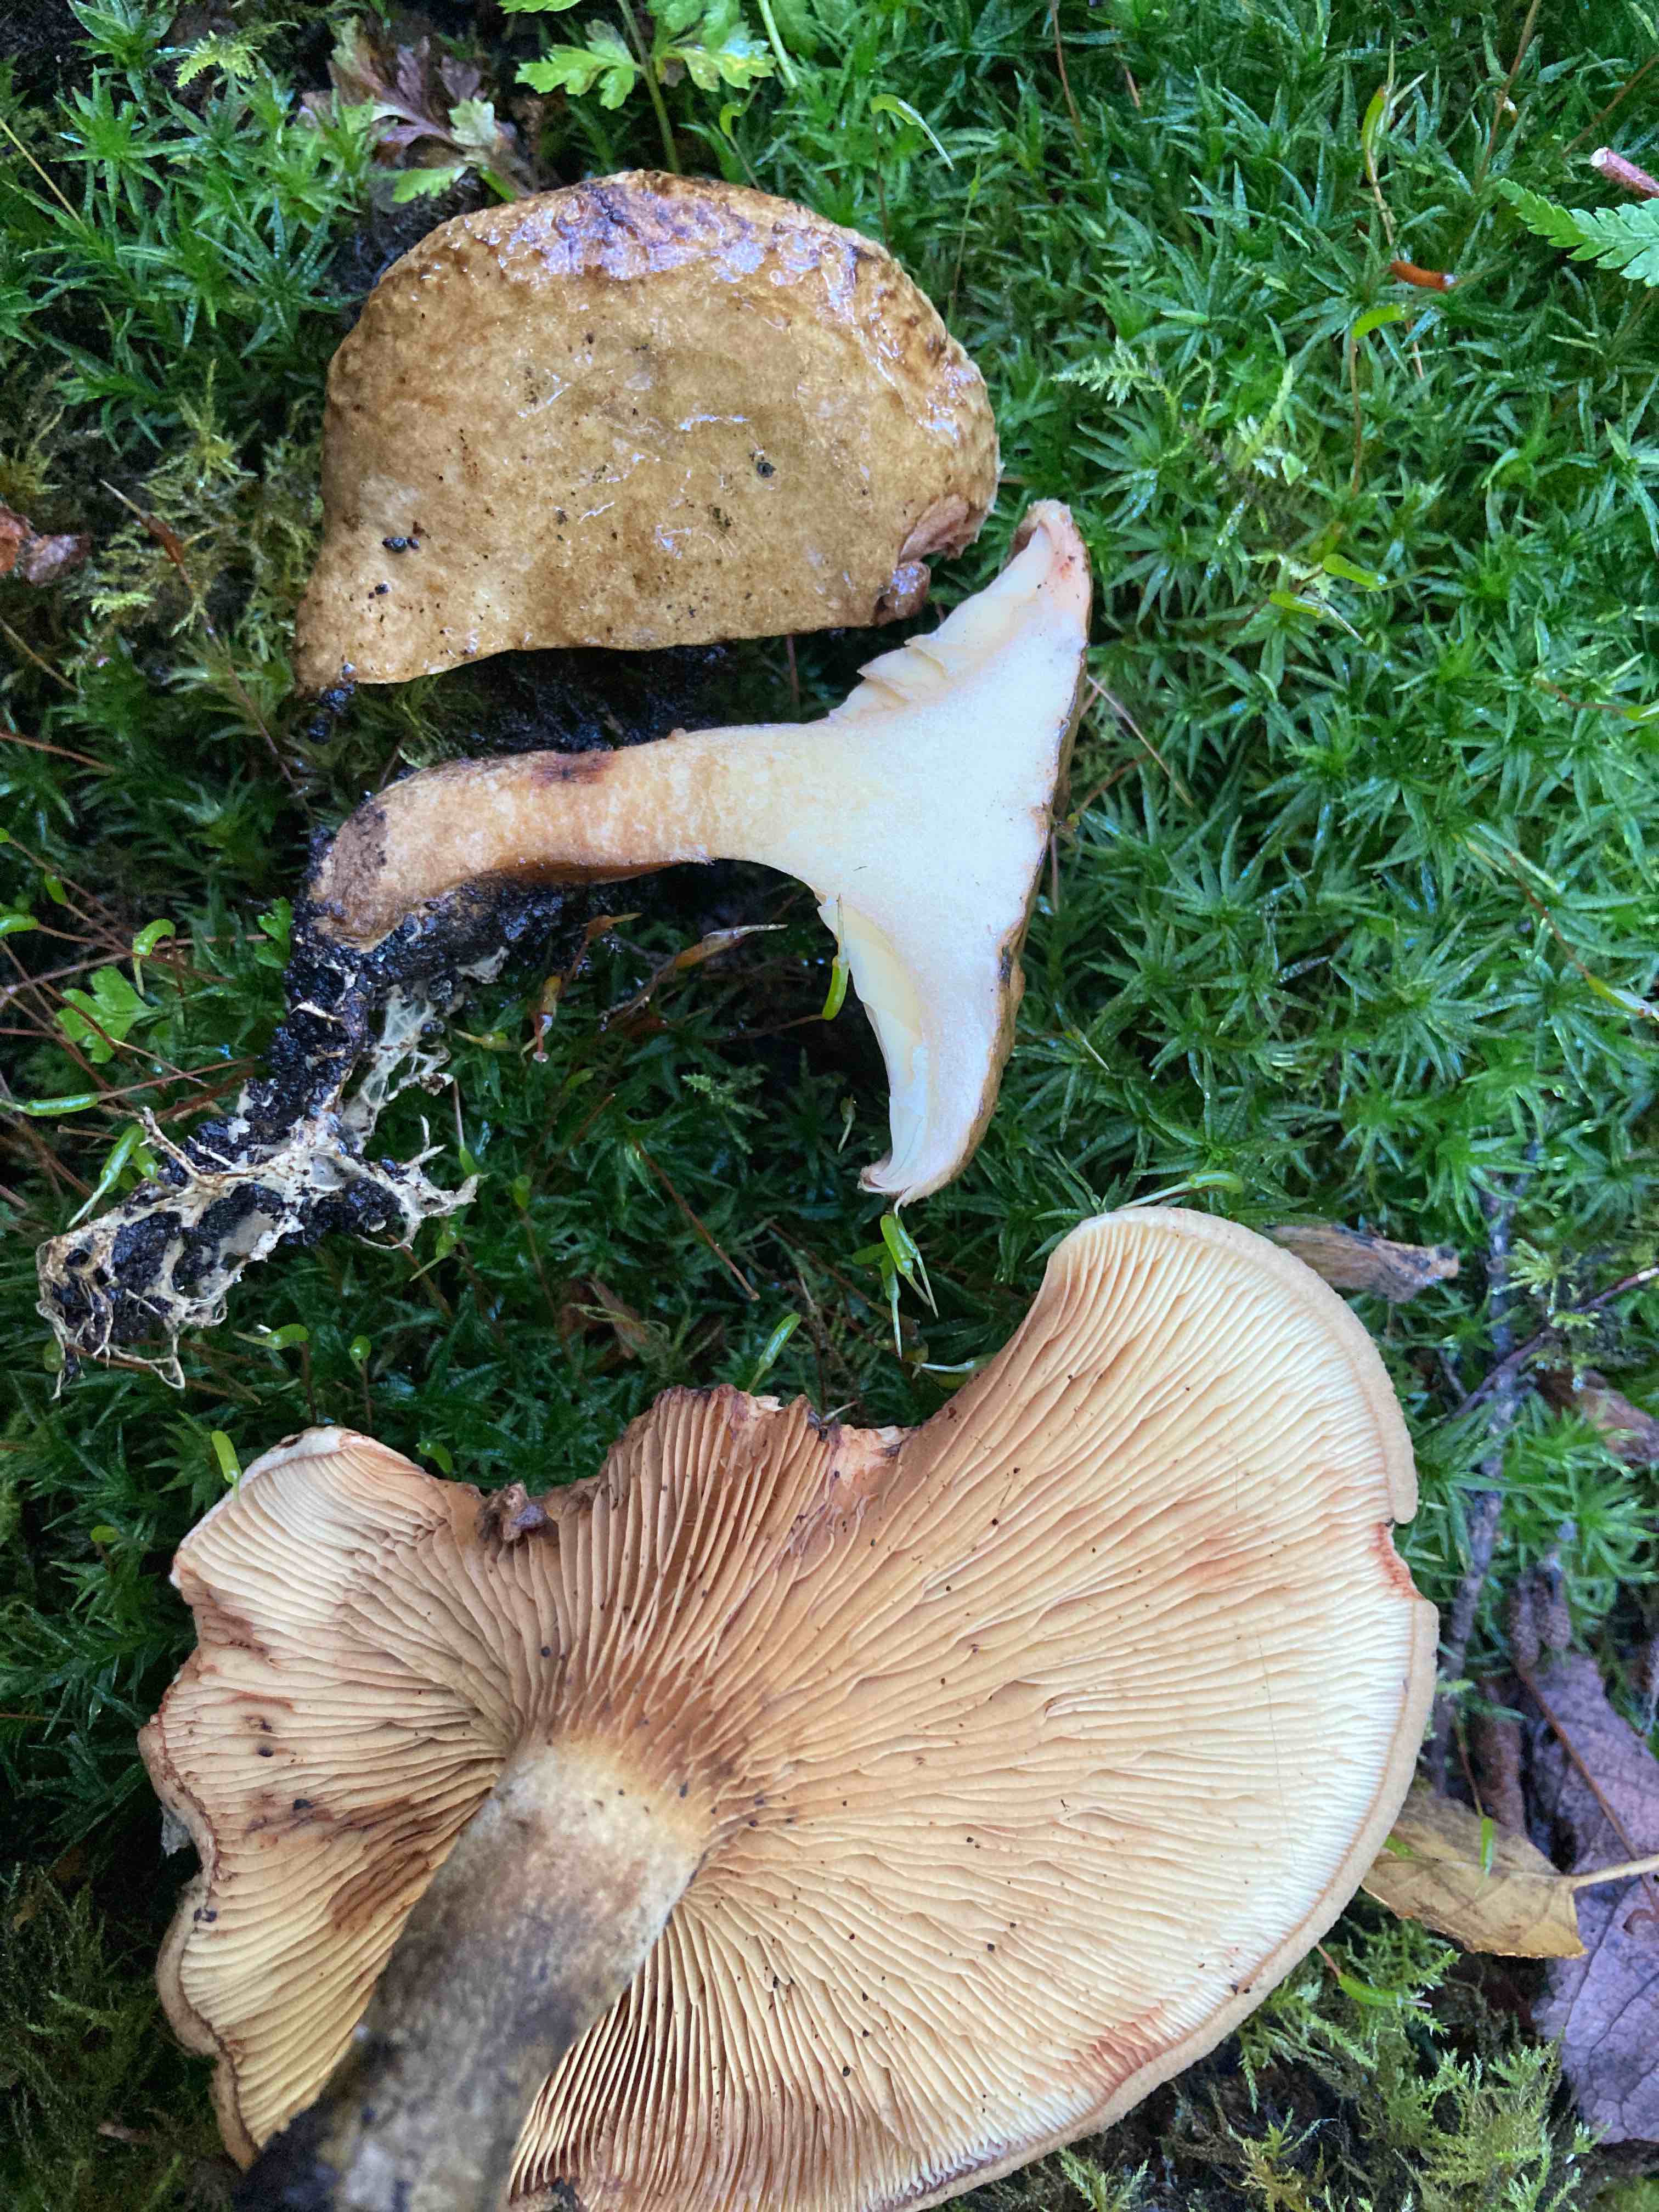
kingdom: Fungi
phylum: Basidiomycota
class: Agaricomycetes
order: Boletales
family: Paxillaceae
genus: Paxillus
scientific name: Paxillus rubicundulus
